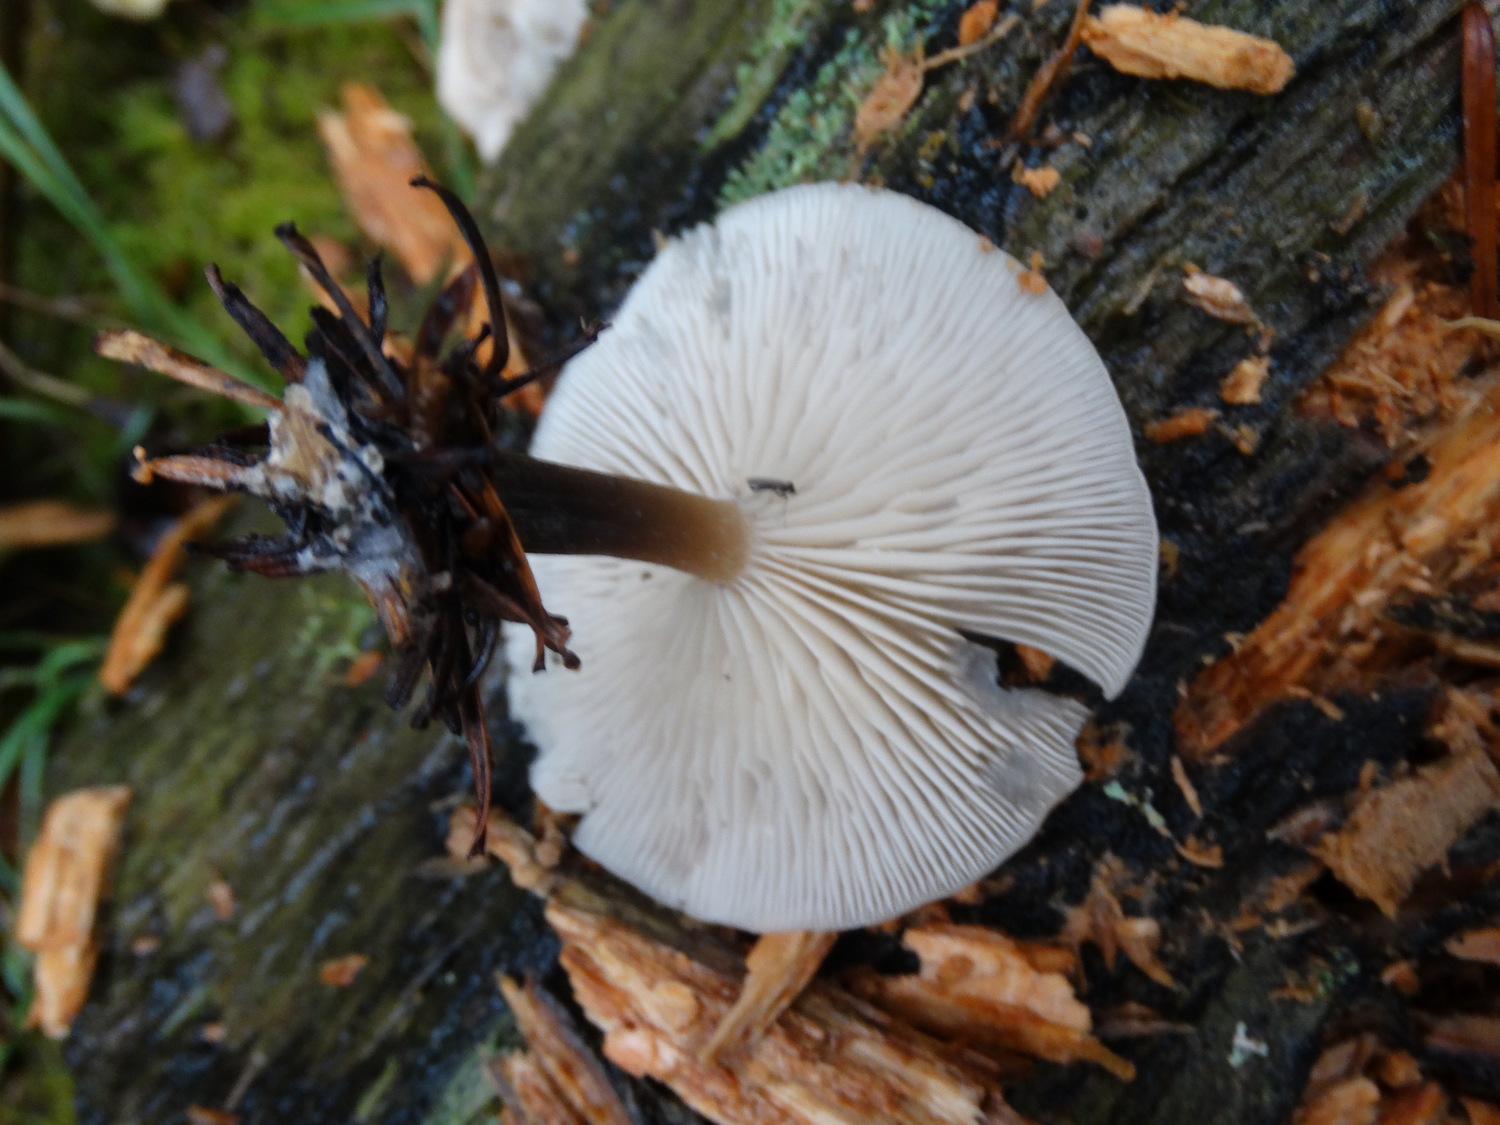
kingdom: Fungi
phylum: Basidiomycota
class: Agaricomycetes
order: Agaricales
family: Tricholomataceae
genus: Clitocybe
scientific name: Clitocybe metachroa
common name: grå tragthat
